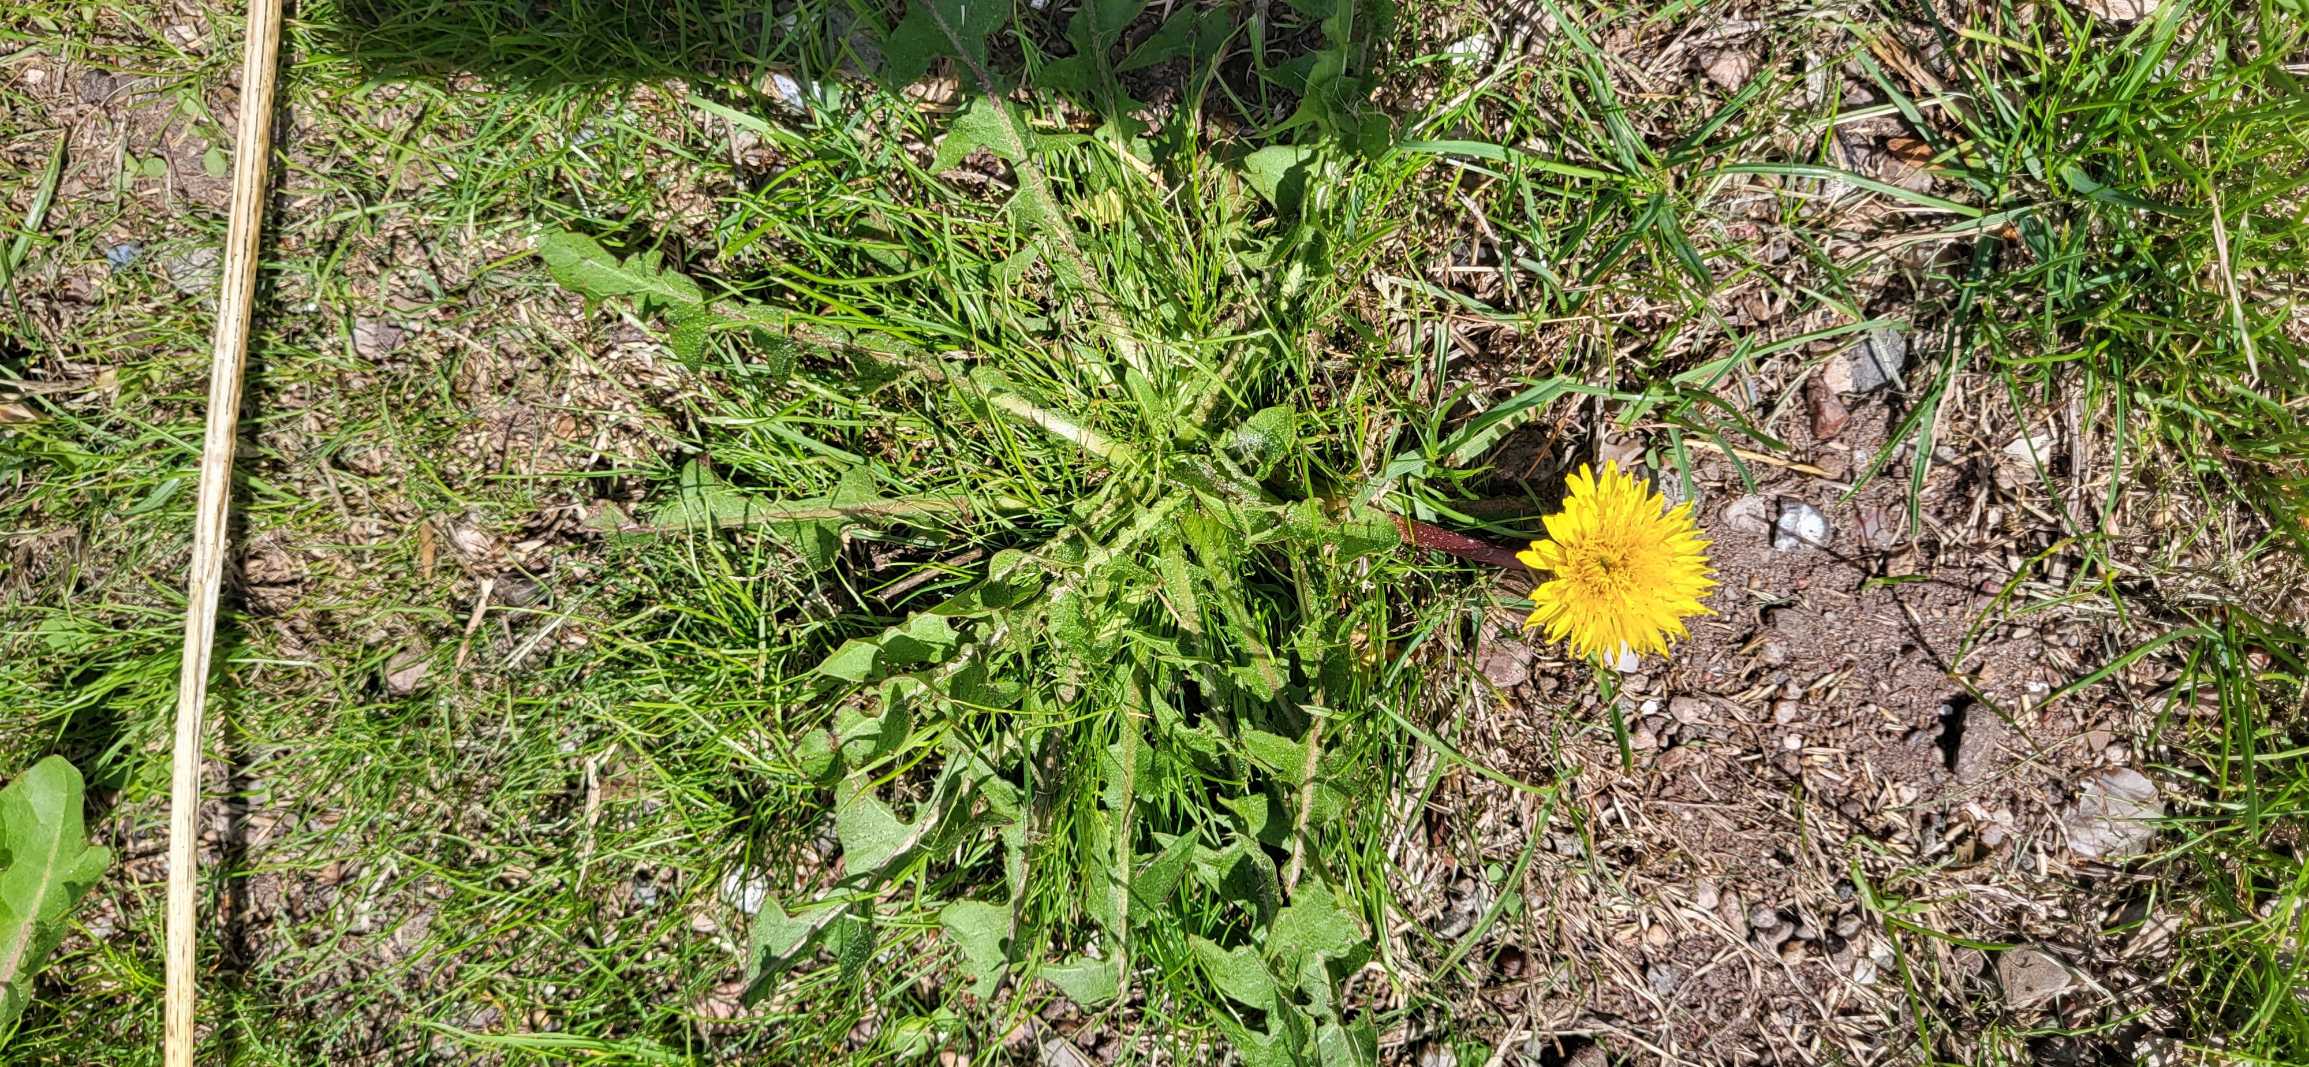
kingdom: Plantae
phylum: Tracheophyta
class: Magnoliopsida
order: Asterales
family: Asteraceae
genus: Taraxacum
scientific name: Taraxacum
